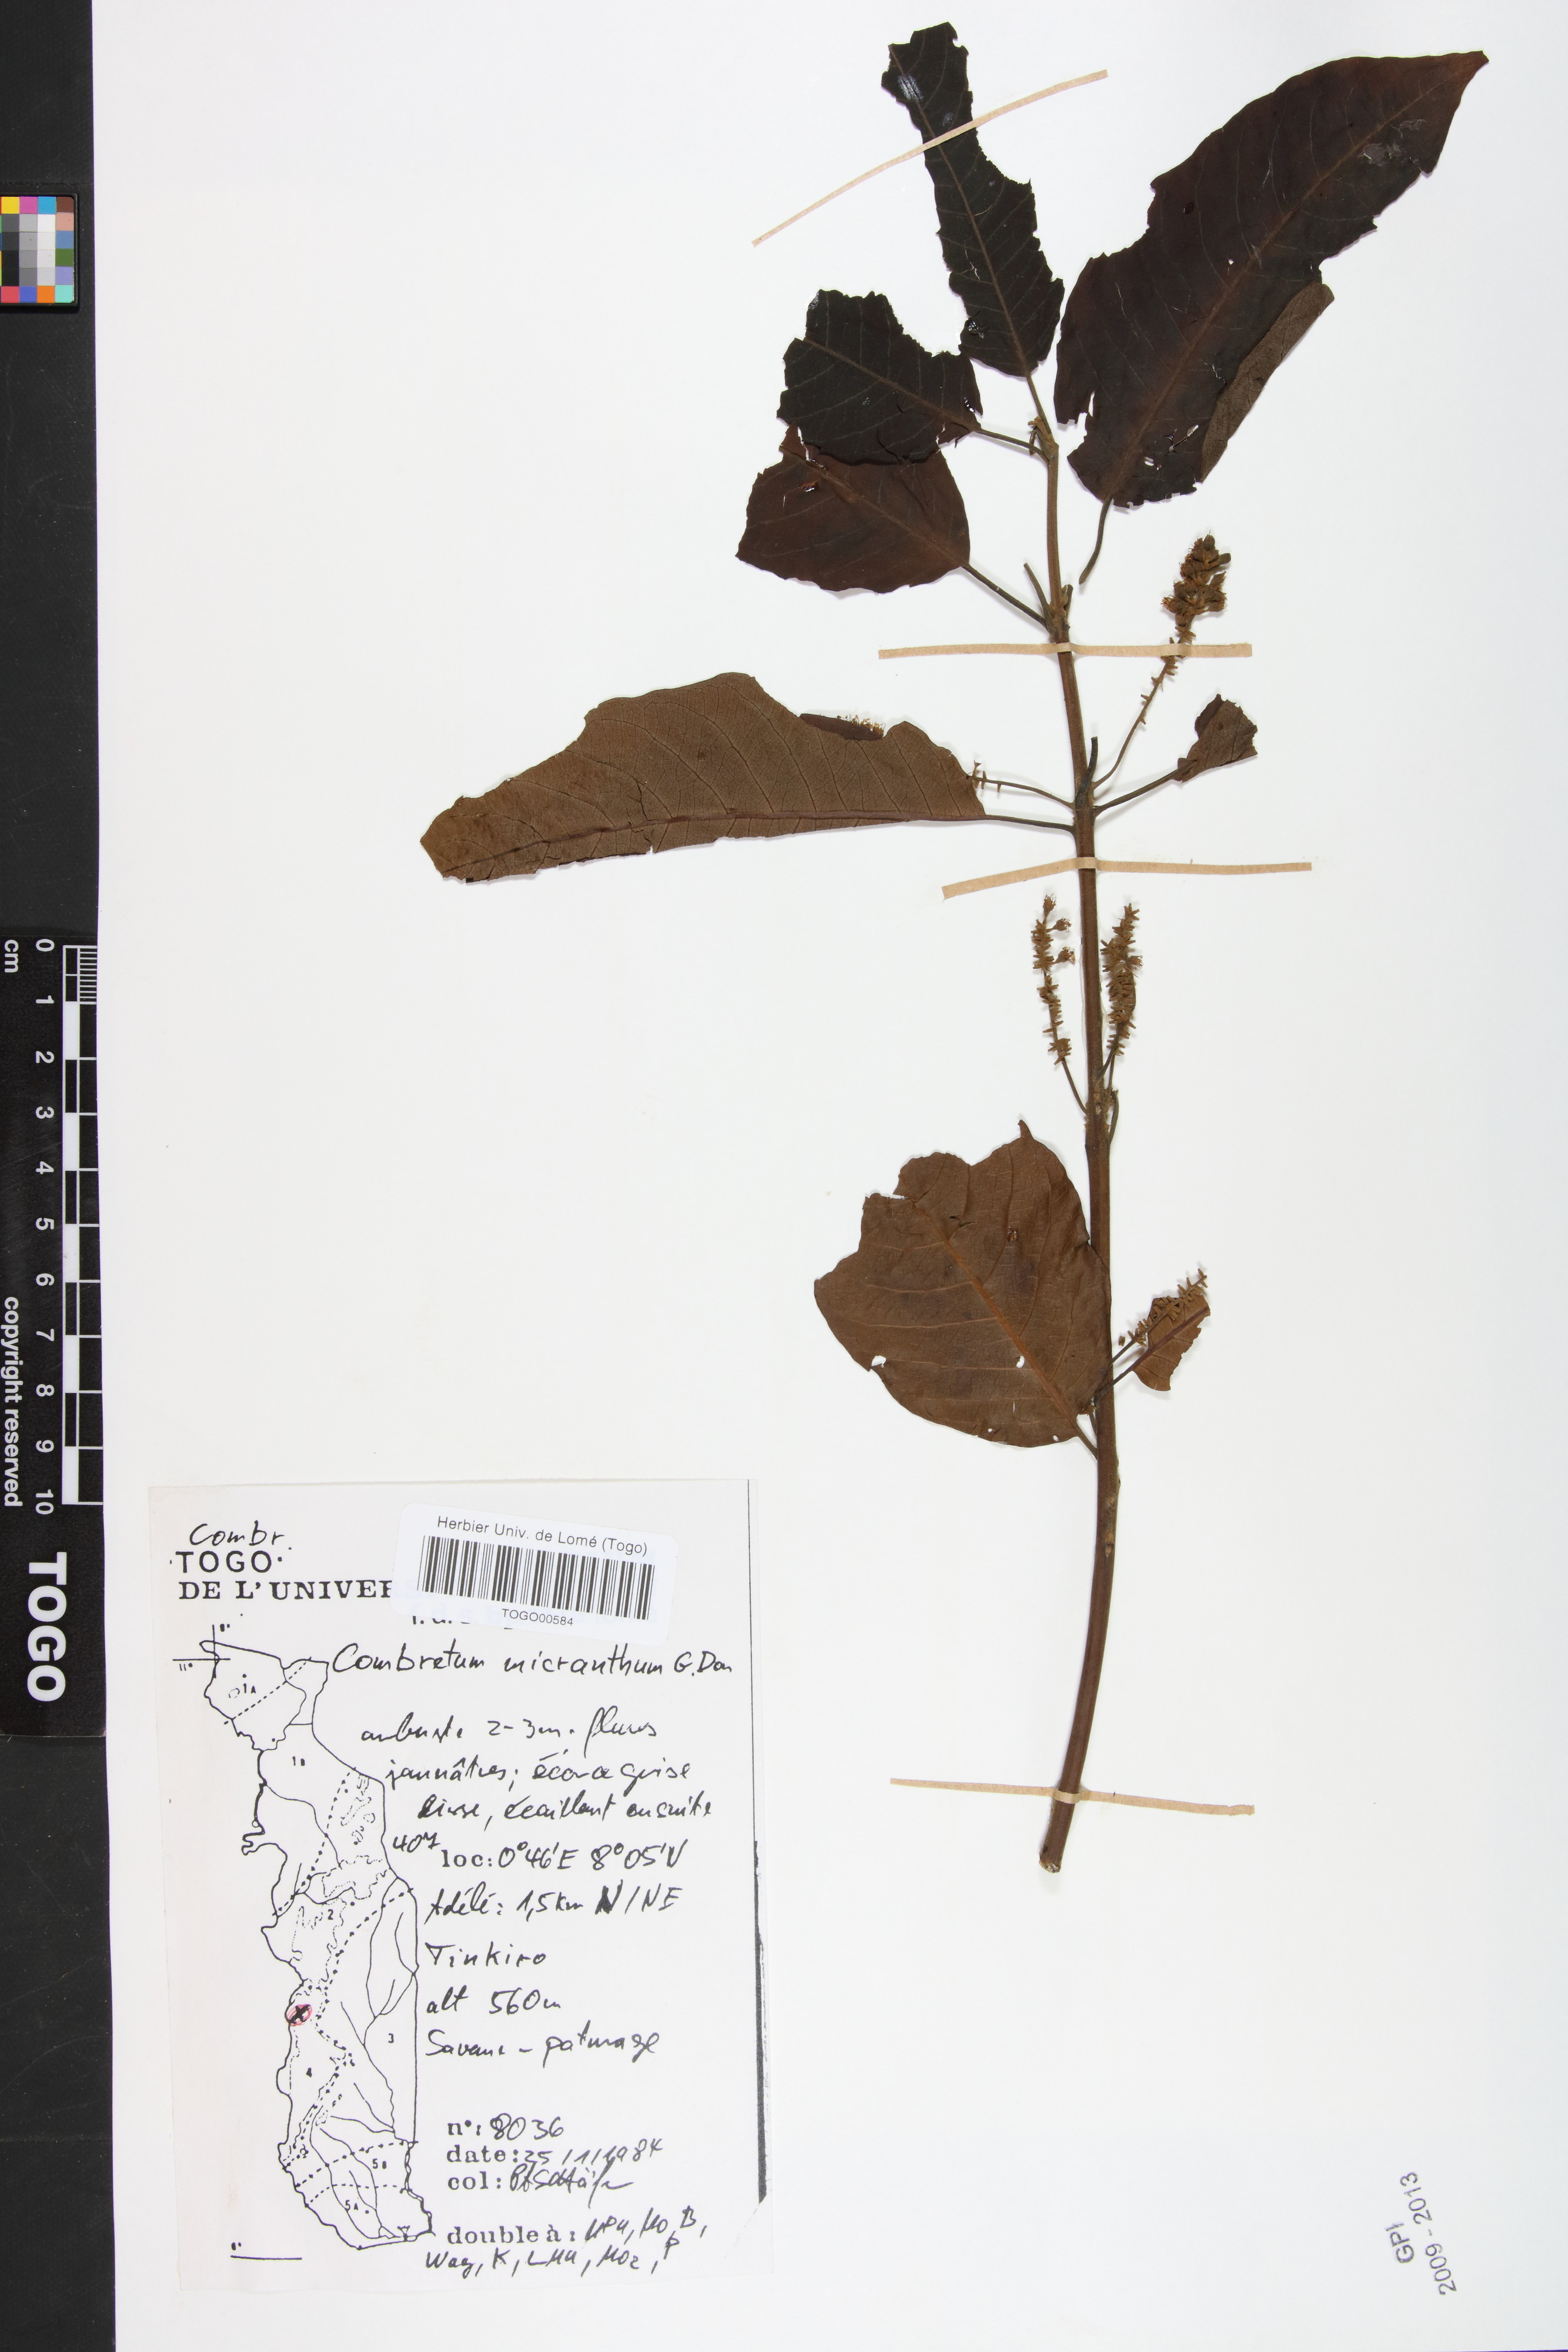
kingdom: Plantae
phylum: Tracheophyta
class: Magnoliopsida
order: Myrtales
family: Combretaceae
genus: Combretum
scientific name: Combretum micranthum
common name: Opium-antidote
